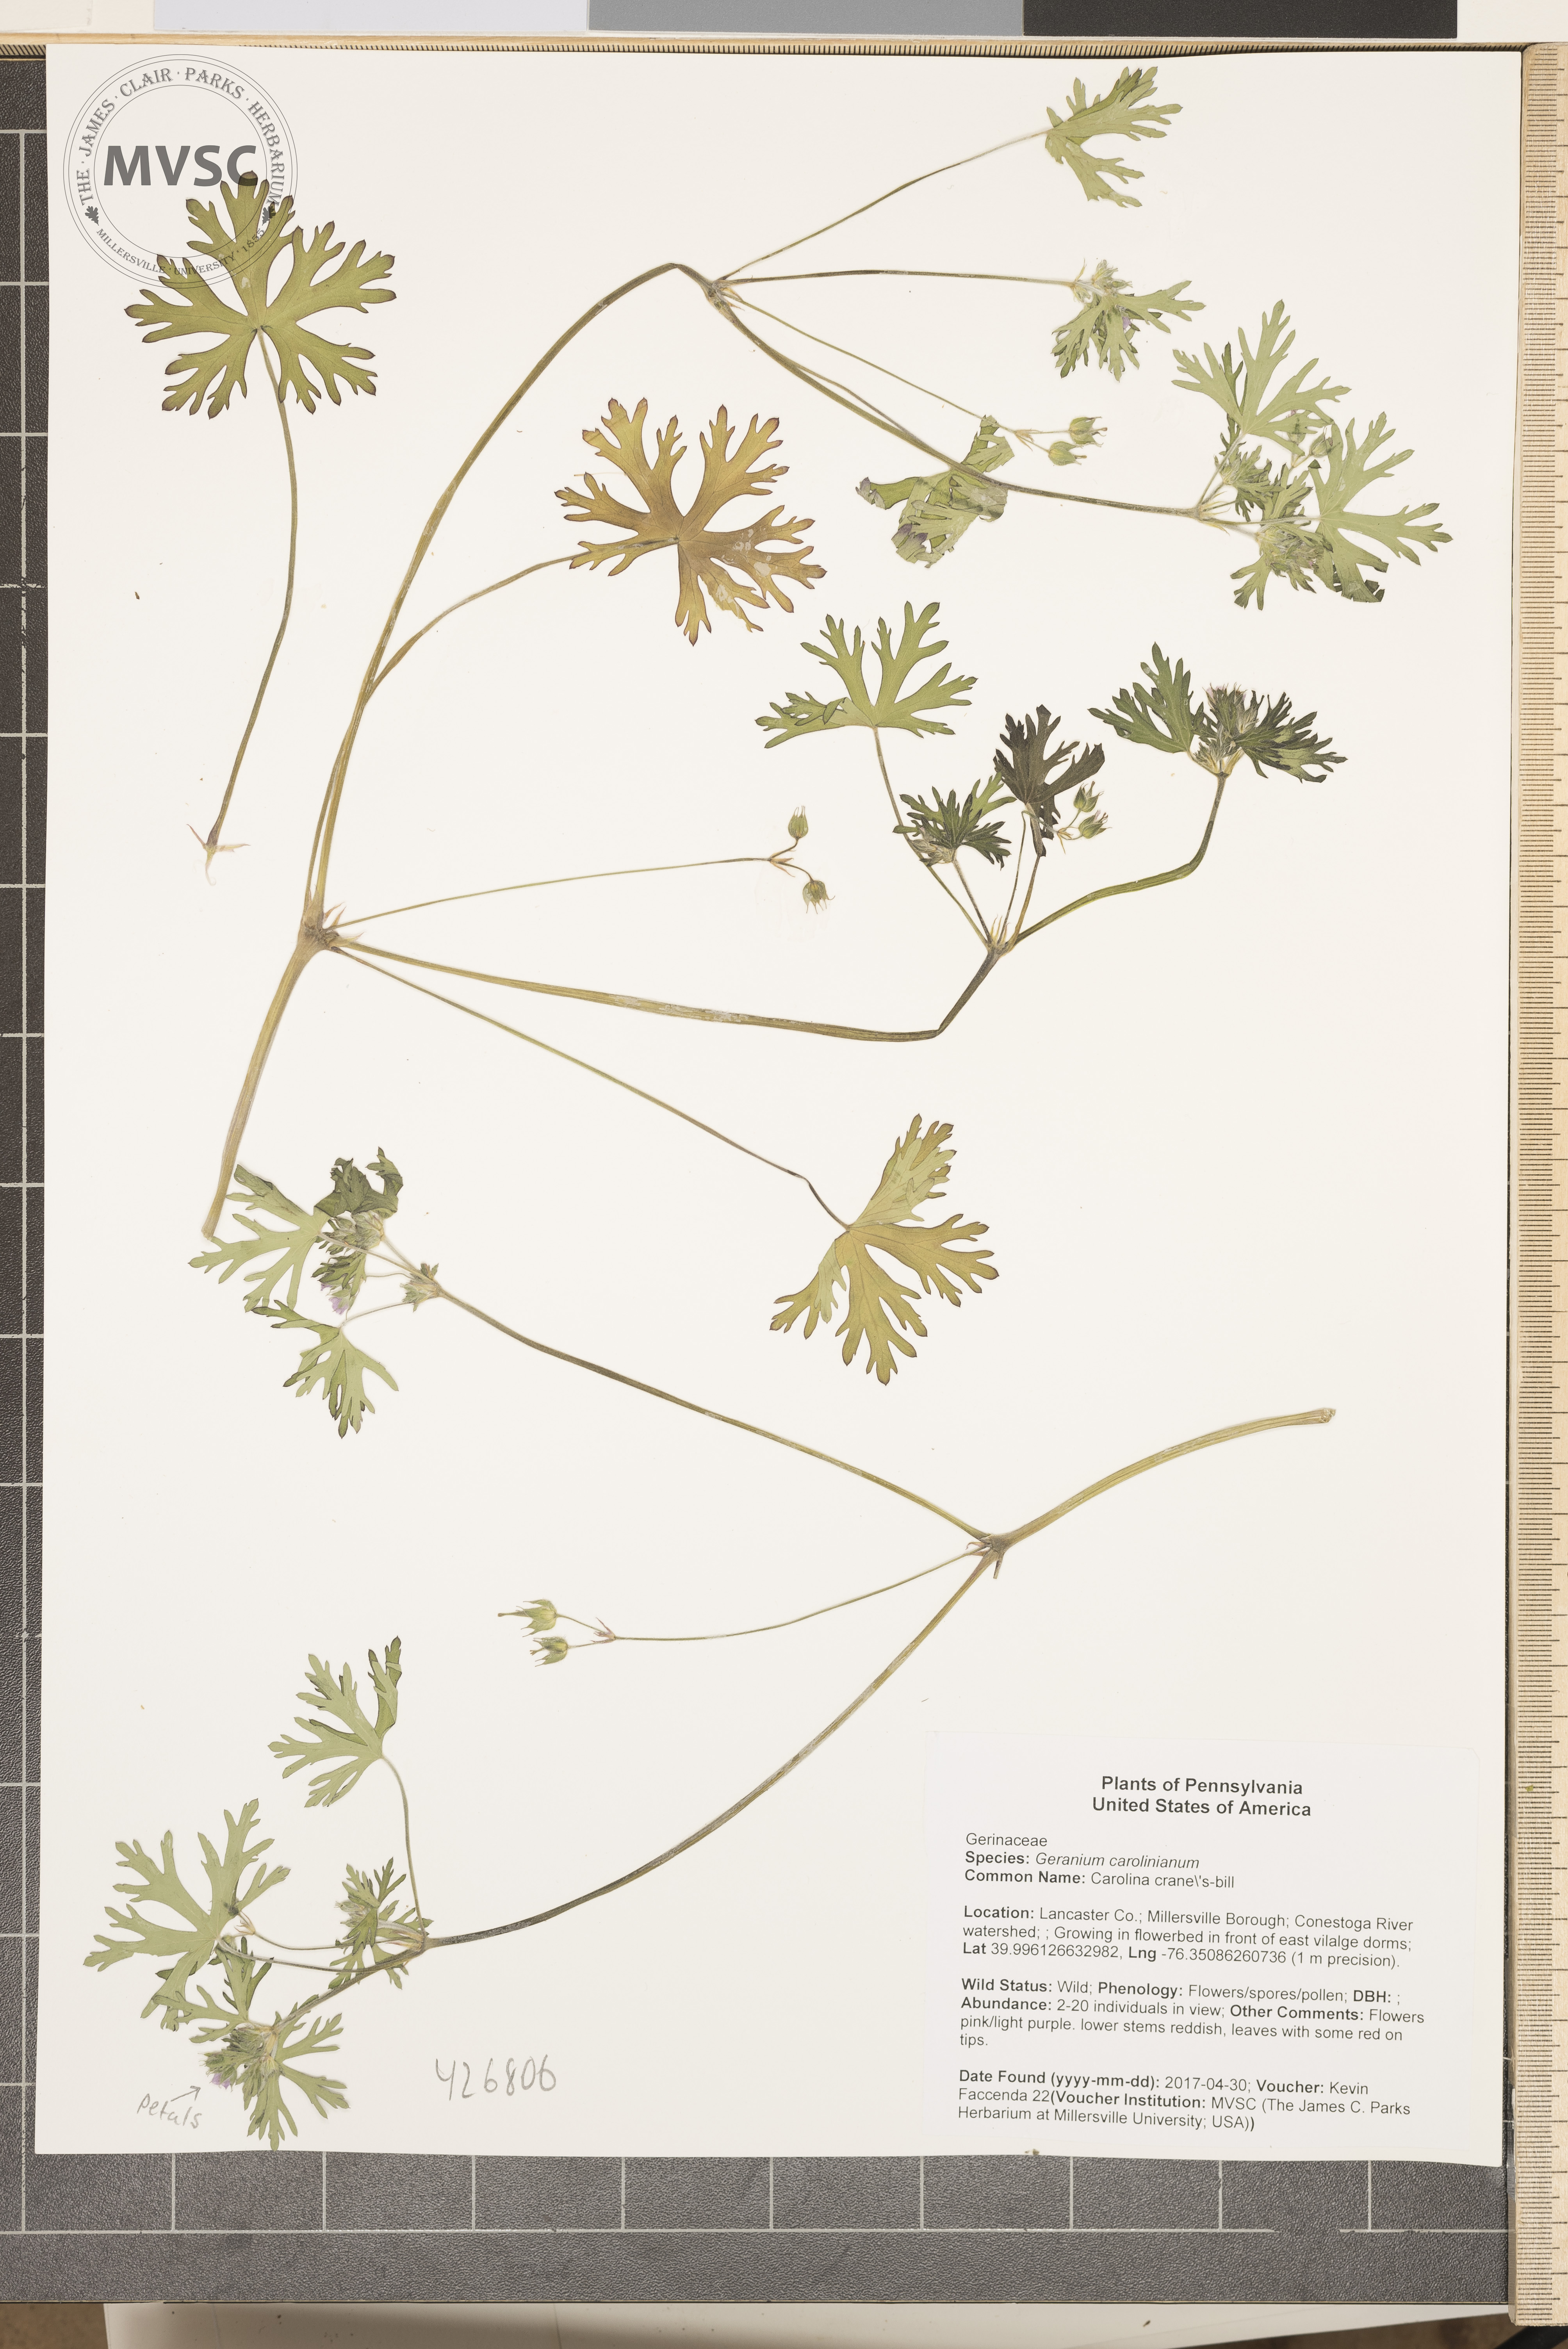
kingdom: Plantae
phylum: Tracheophyta
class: Magnoliopsida
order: Geraniales
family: Geraniaceae
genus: Geranium
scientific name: Geranium carolinianum
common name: Carolina crane's-bill
